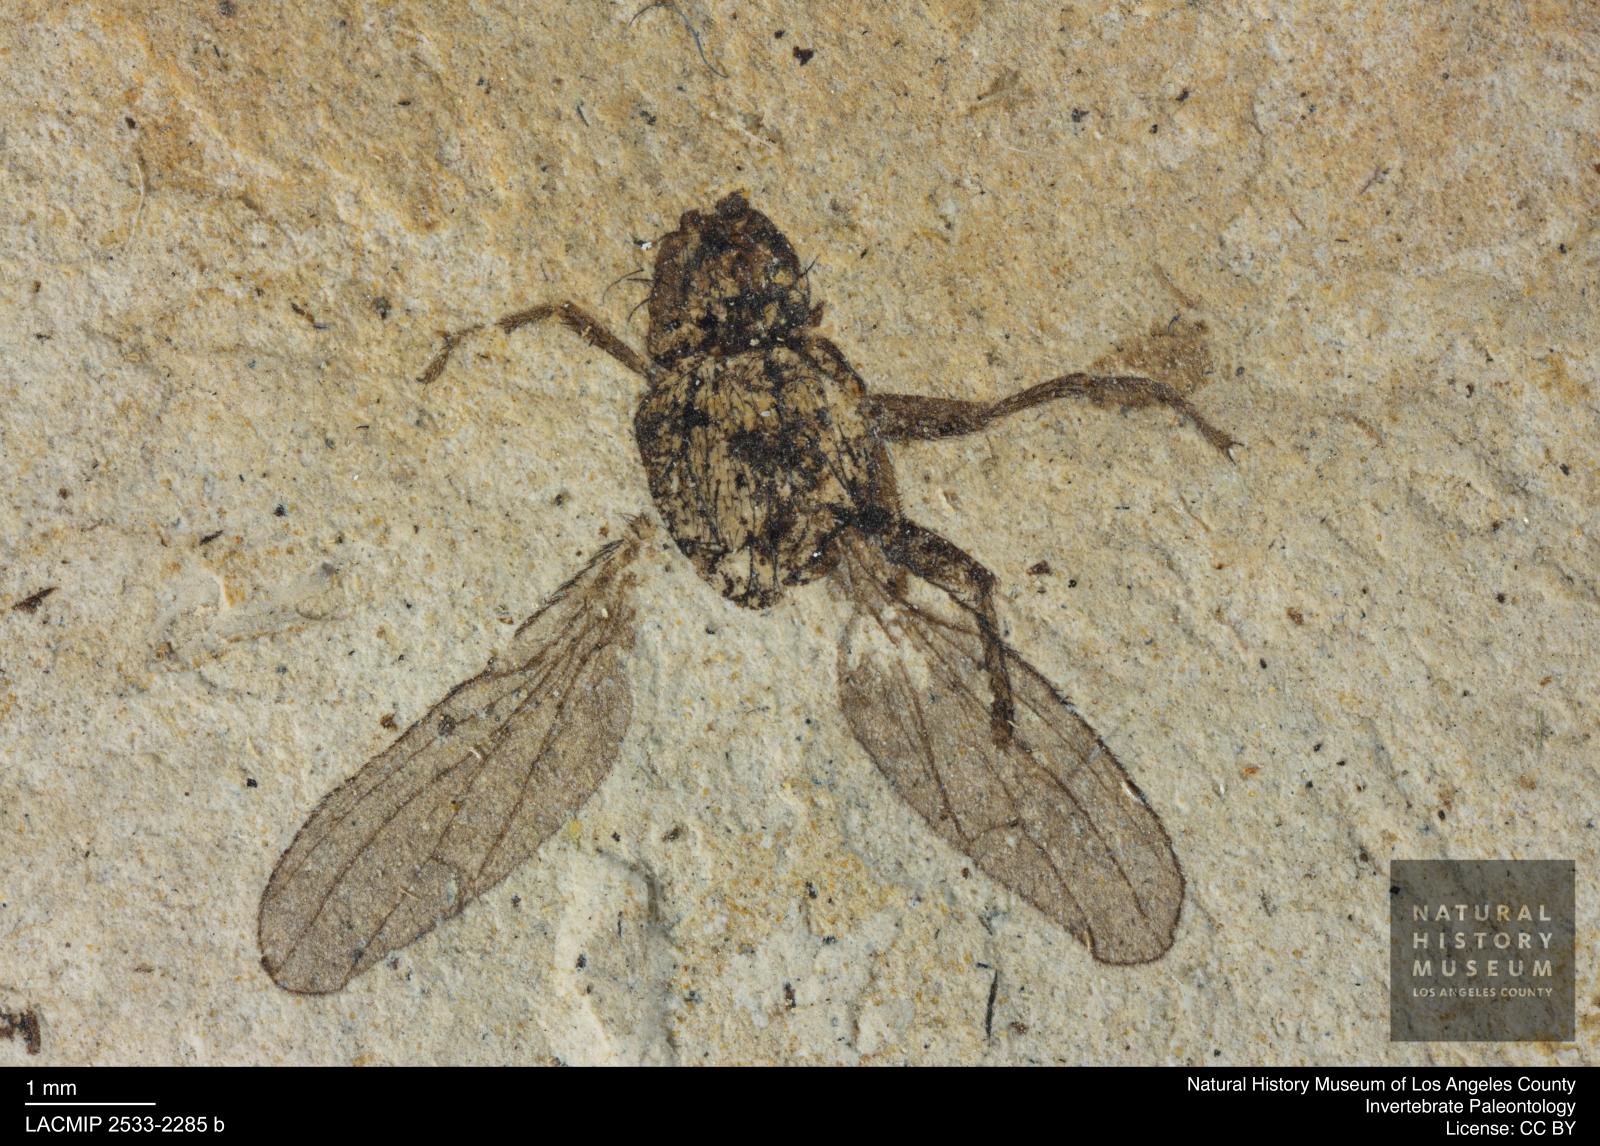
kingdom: Animalia
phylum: Arthropoda
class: Insecta
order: Diptera
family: Heleomyzidae
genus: Heleomyza
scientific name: Heleomyza Leria bauckhorni
